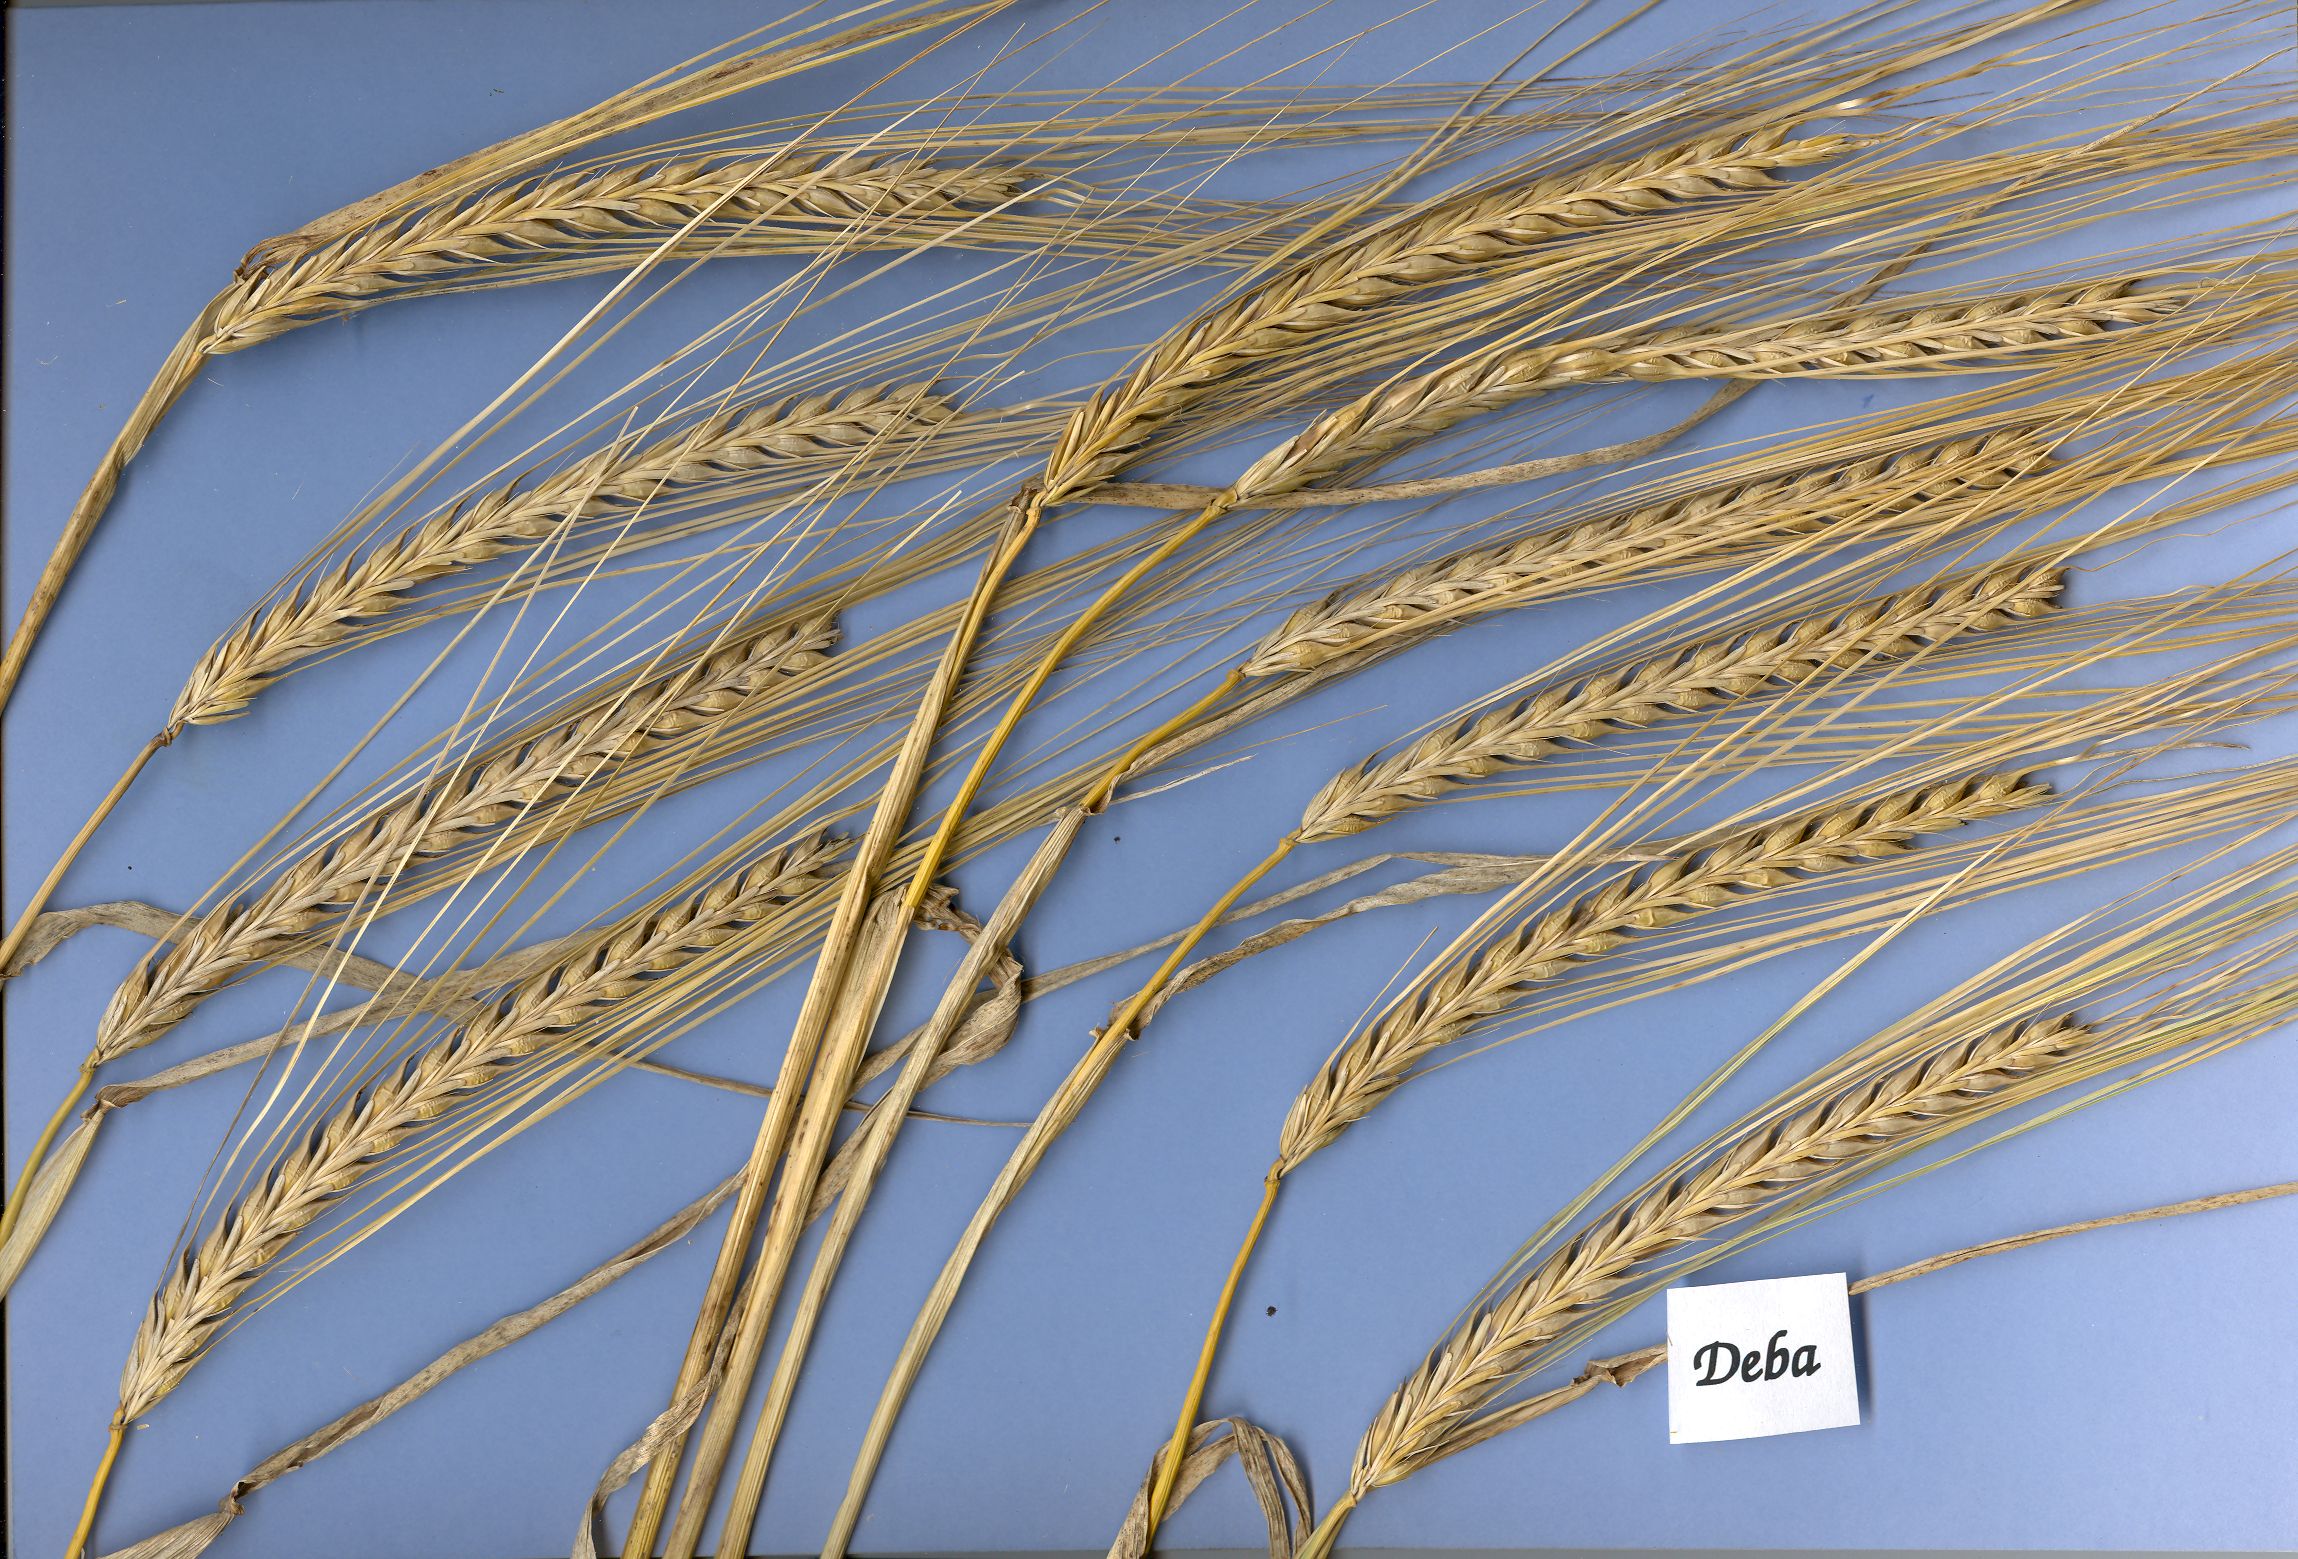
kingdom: Plantae
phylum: Tracheophyta
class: Liliopsida
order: Poales
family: Poaceae
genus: Hordeum
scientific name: Hordeum vulgare
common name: Common barley
